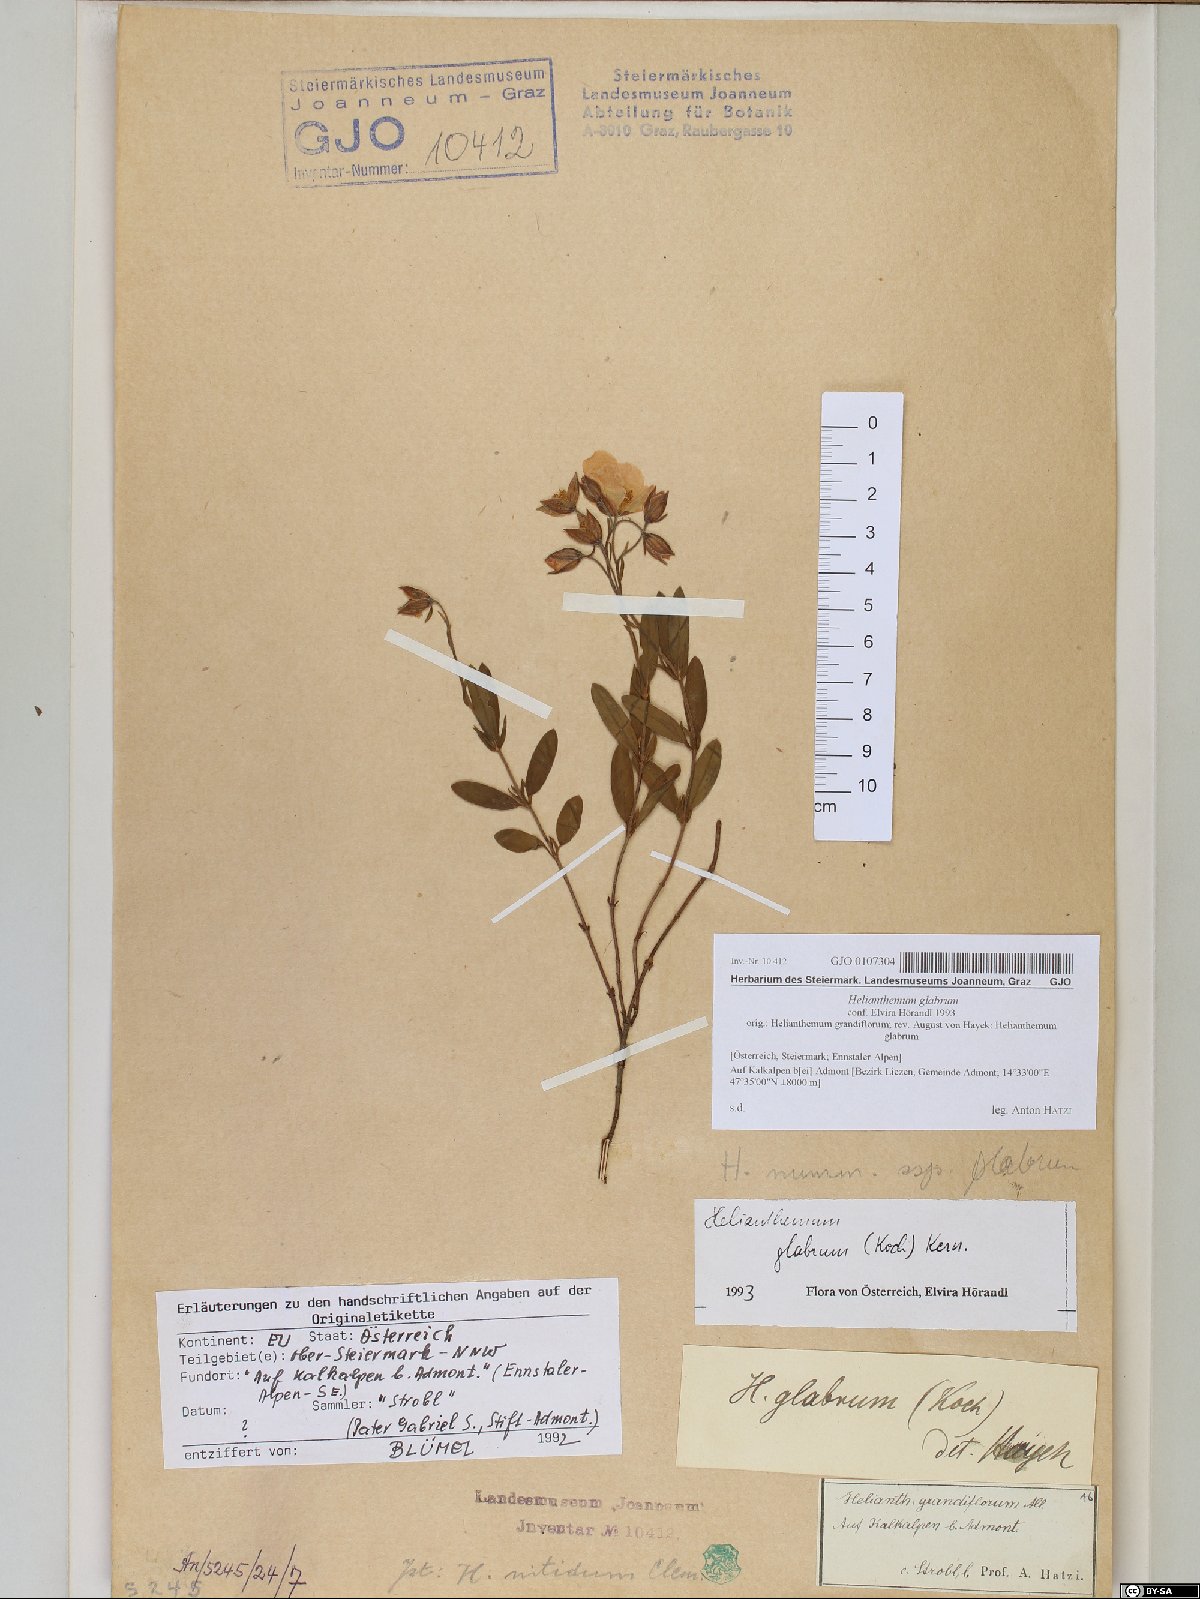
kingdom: Plantae
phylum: Tracheophyta
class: Magnoliopsida
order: Malvales
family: Cistaceae
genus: Helianthemum
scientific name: Helianthemum nummularium
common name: Common rock-rose
